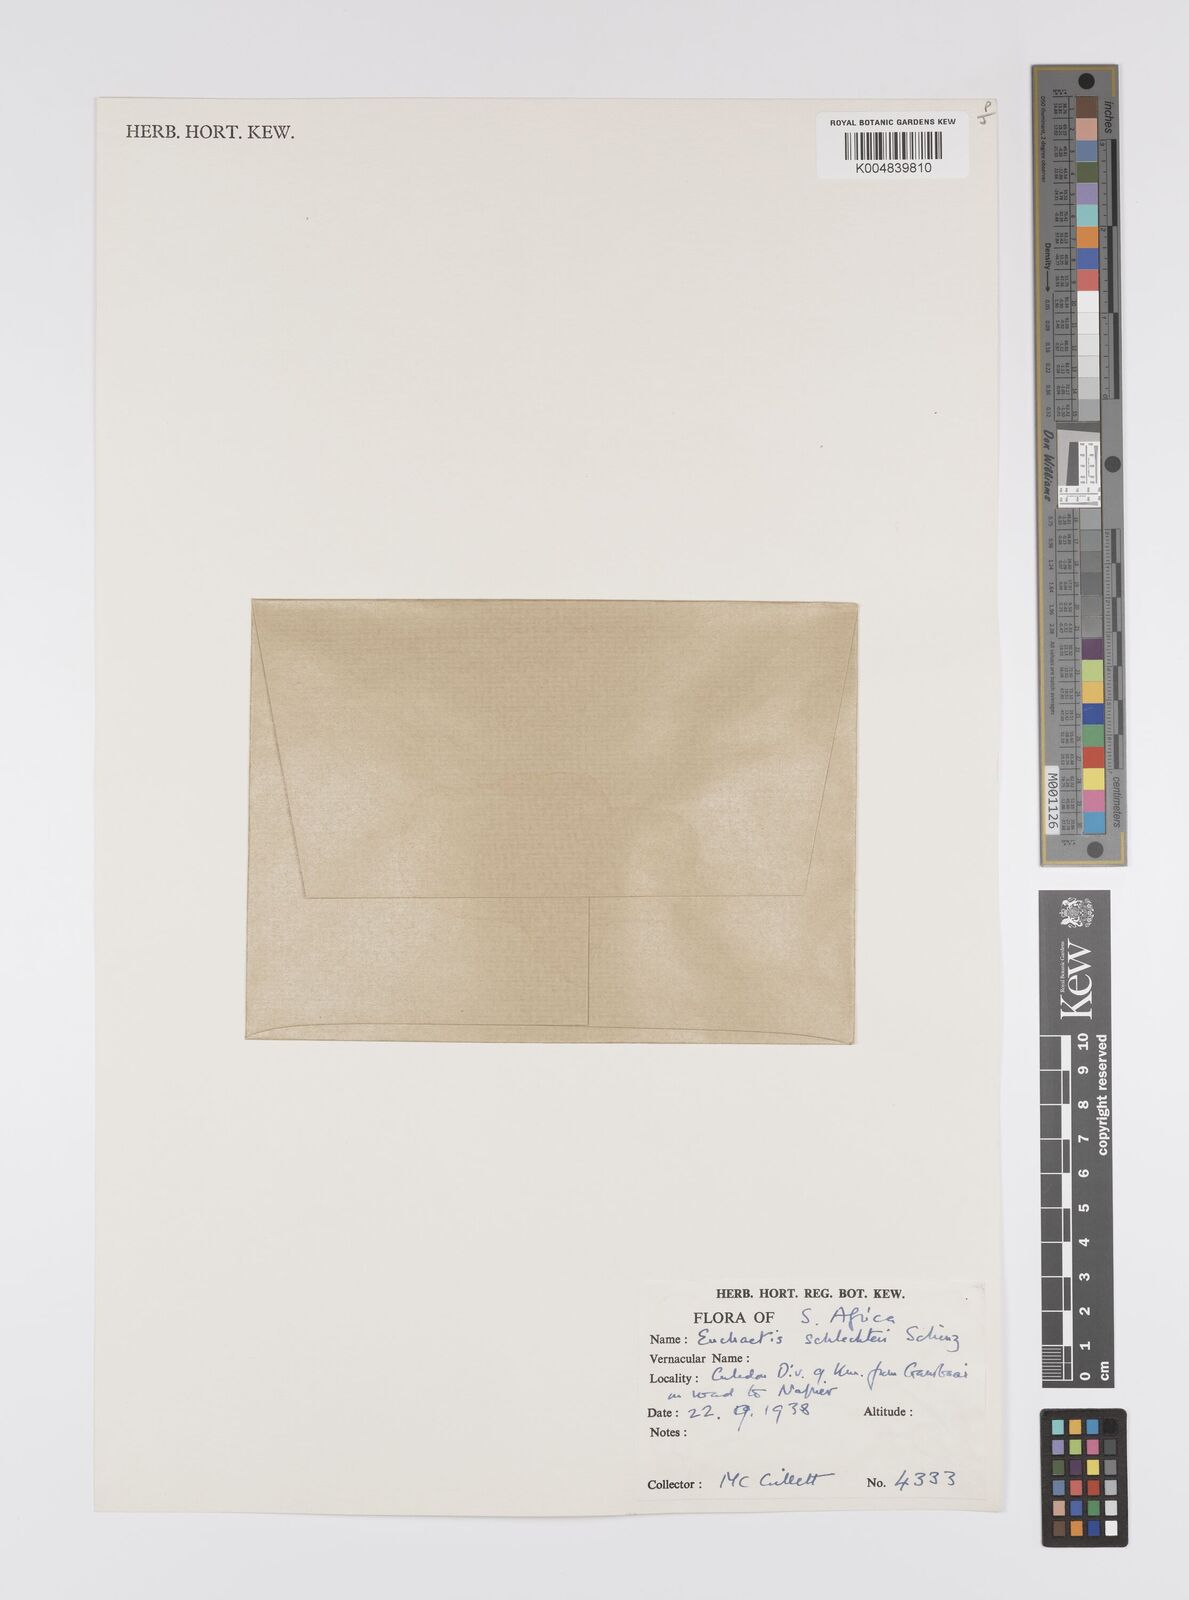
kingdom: Plantae
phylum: Tracheophyta
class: Magnoliopsida
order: Sapindales
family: Rutaceae
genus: Euchaetis
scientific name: Euchaetis schlechteri
